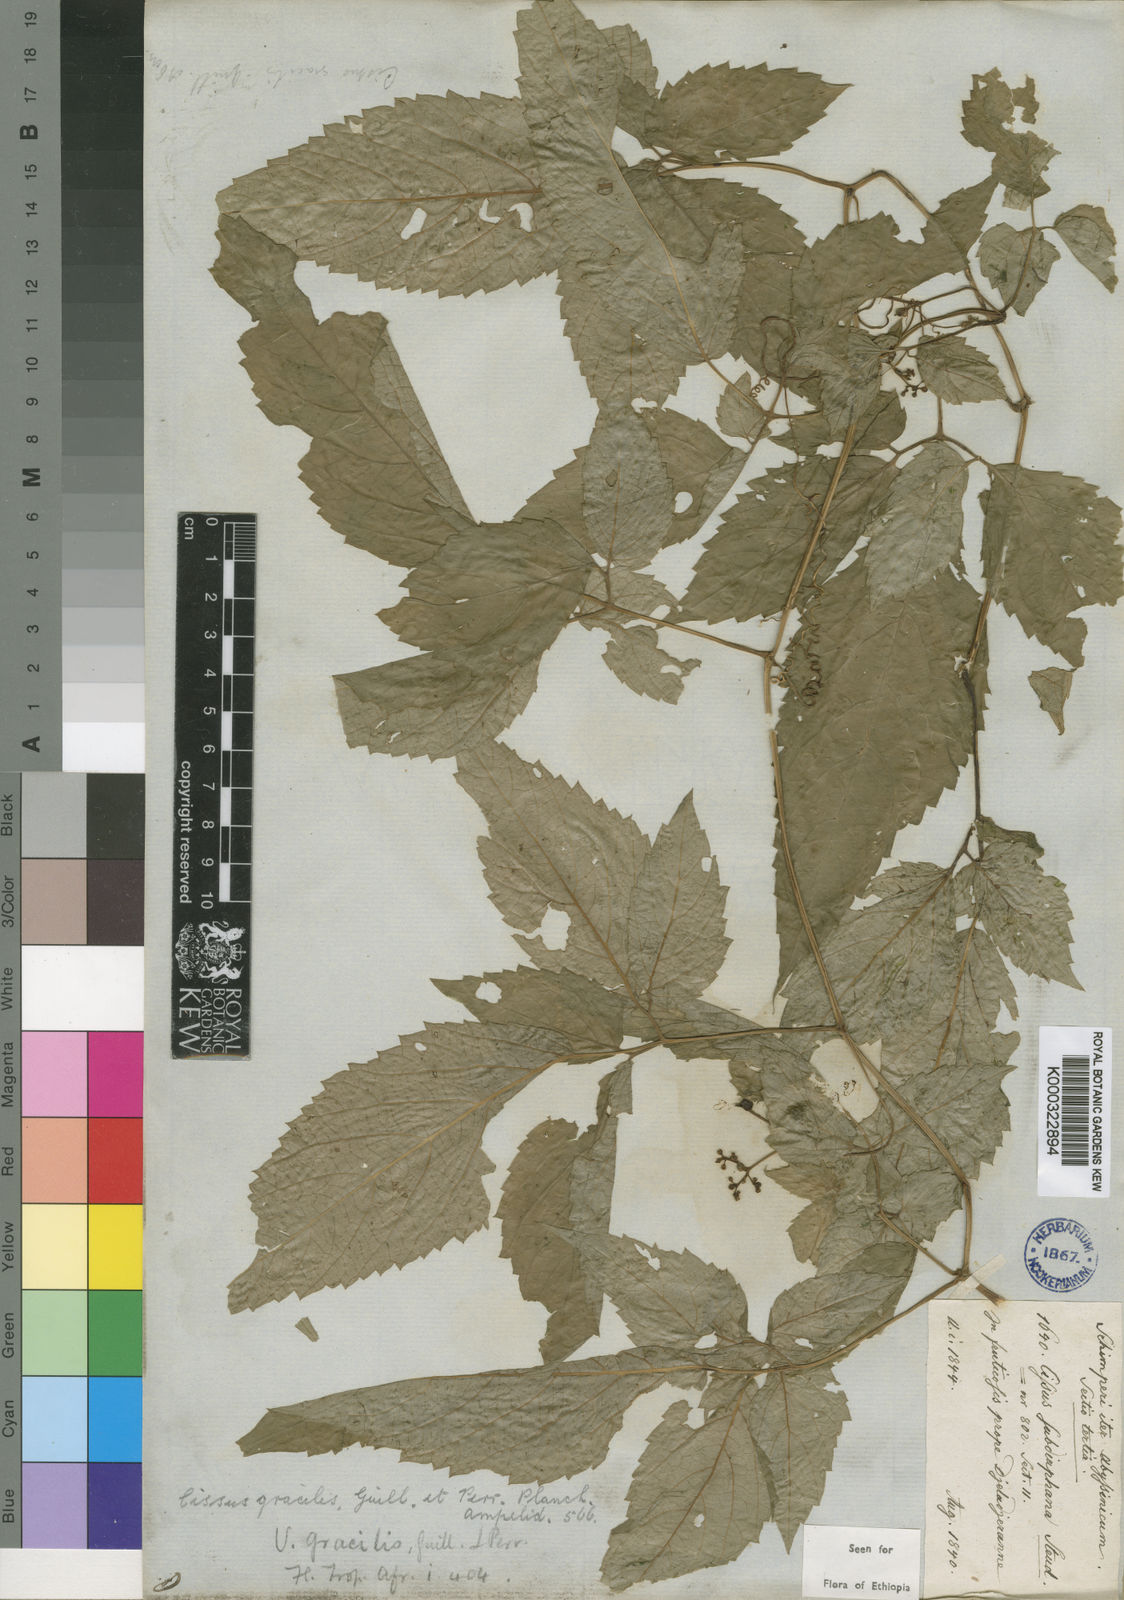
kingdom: Plantae
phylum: Tracheophyta
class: Magnoliopsida
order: Vitales
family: Vitaceae
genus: Afrocayratia
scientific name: Afrocayratia gracilis
